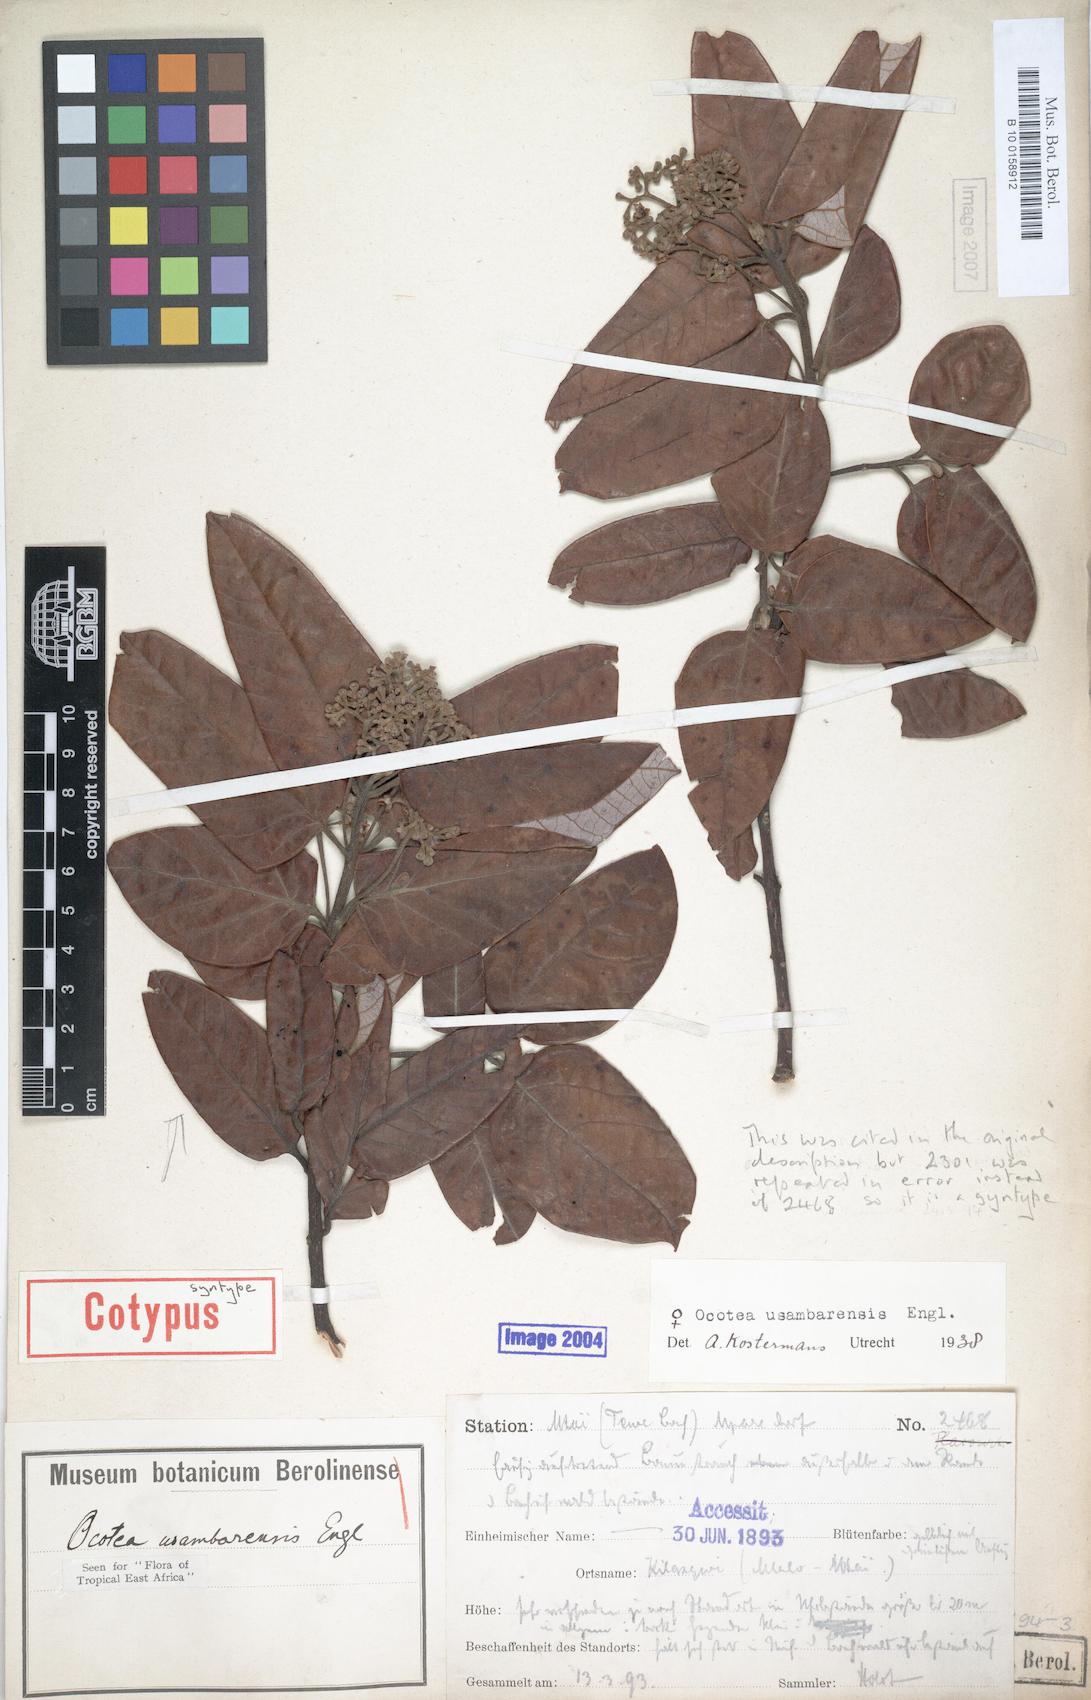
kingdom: Plantae
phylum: Tracheophyta
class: Magnoliopsida
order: Laurales
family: Lauraceae
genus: Kuloa
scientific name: Kuloa usambarensis
